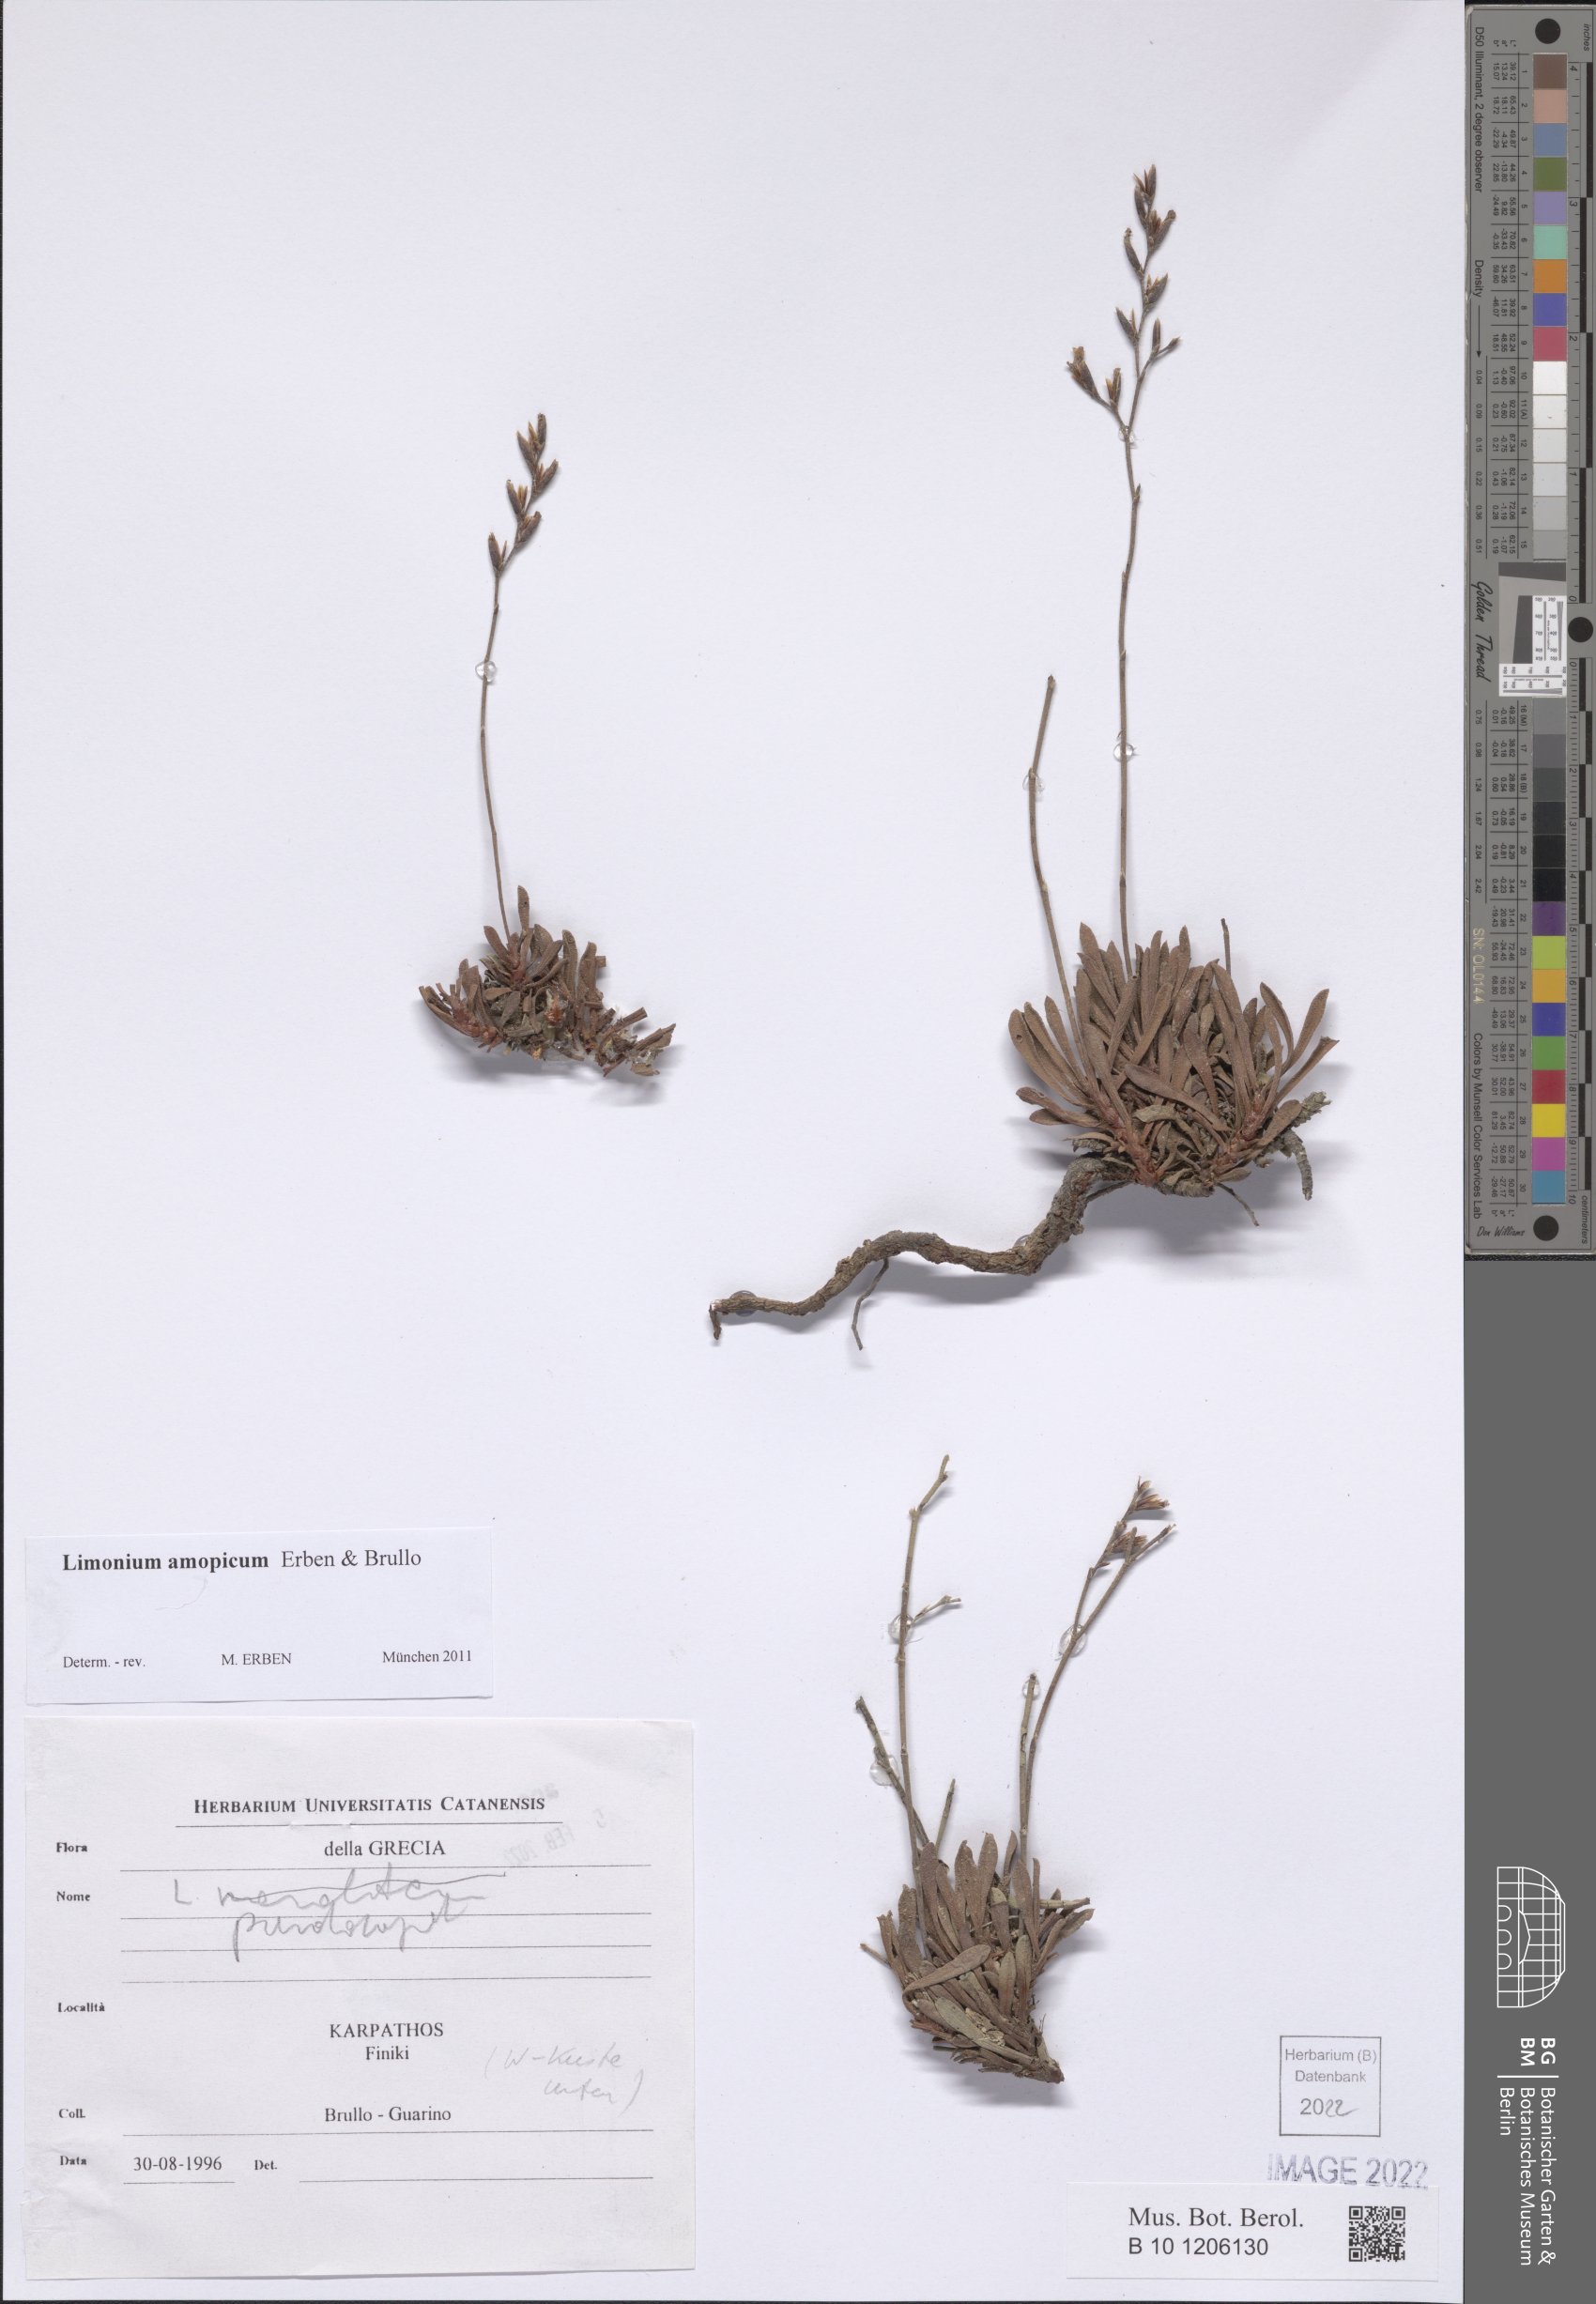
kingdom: Plantae
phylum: Tracheophyta
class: Magnoliopsida
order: Caryophyllales
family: Plumbaginaceae
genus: Limonium
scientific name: Limonium amopicum
